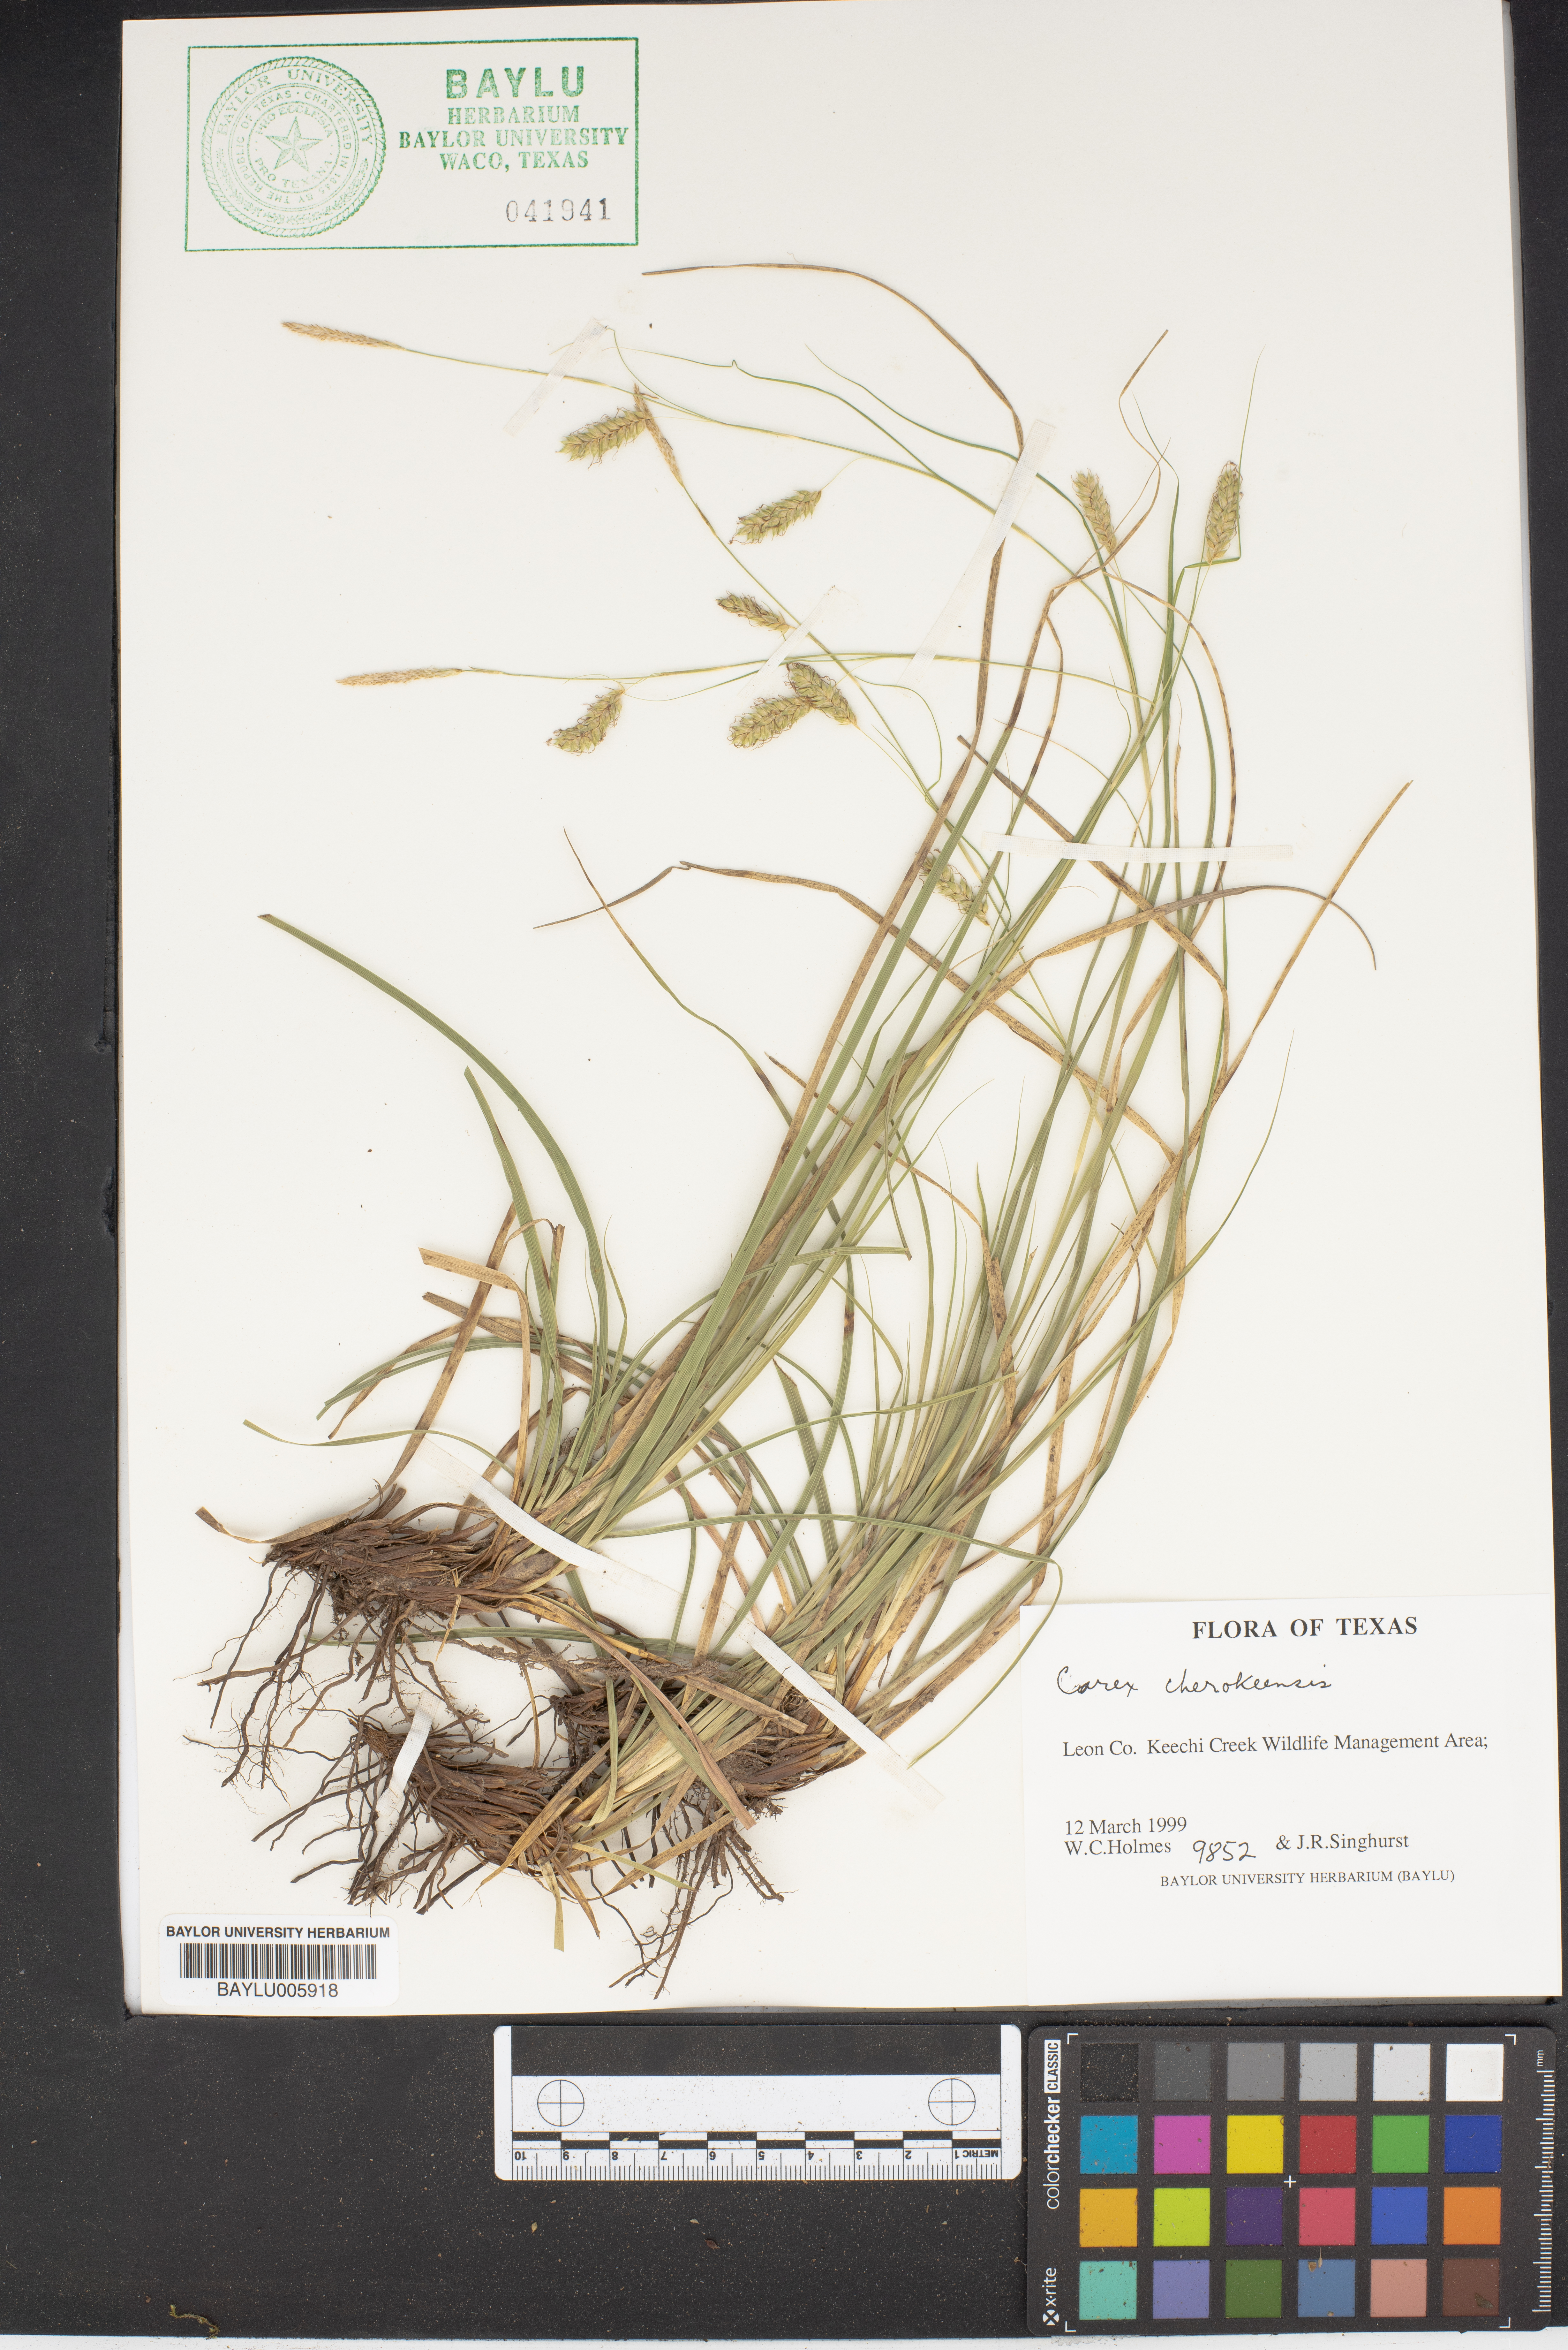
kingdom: Plantae
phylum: Tracheophyta
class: Liliopsida
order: Poales
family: Cyperaceae
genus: Carex
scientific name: Carex cherokeensis
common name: Cherokee sedge
